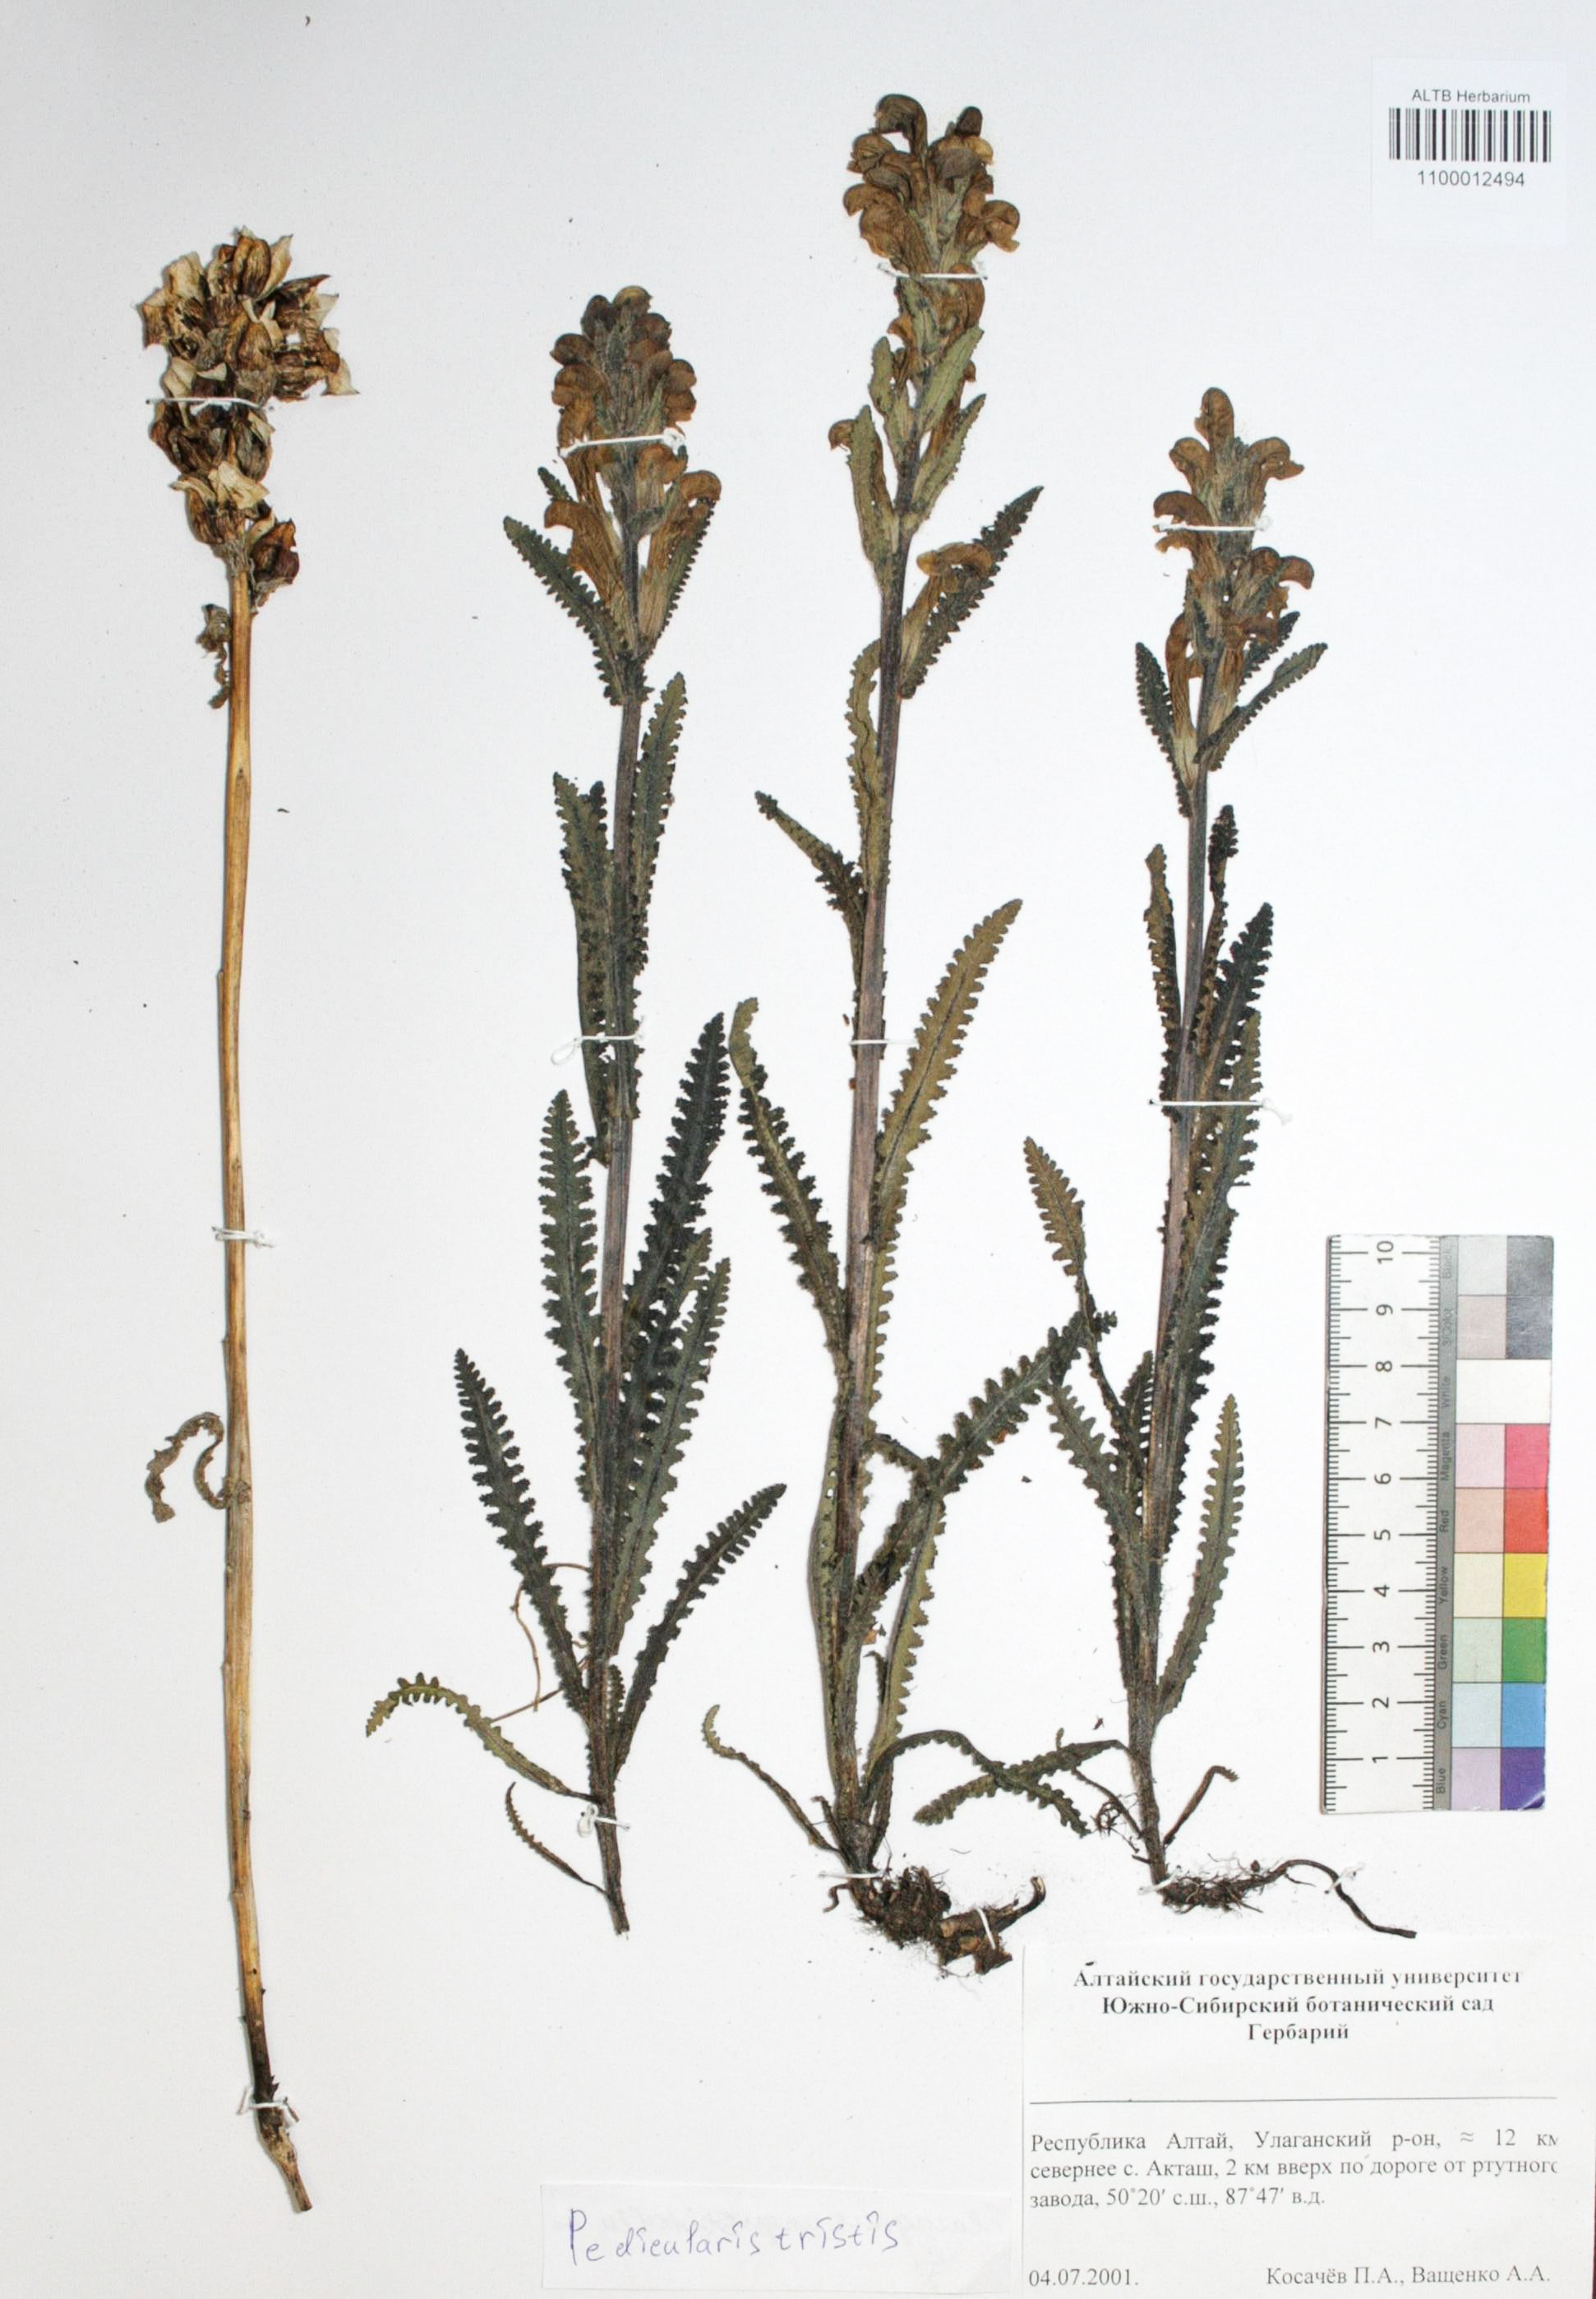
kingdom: Plantae
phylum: Tracheophyta
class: Magnoliopsida
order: Lamiales
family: Orobanchaceae
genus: Pedicularis
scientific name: Pedicularis tristis
